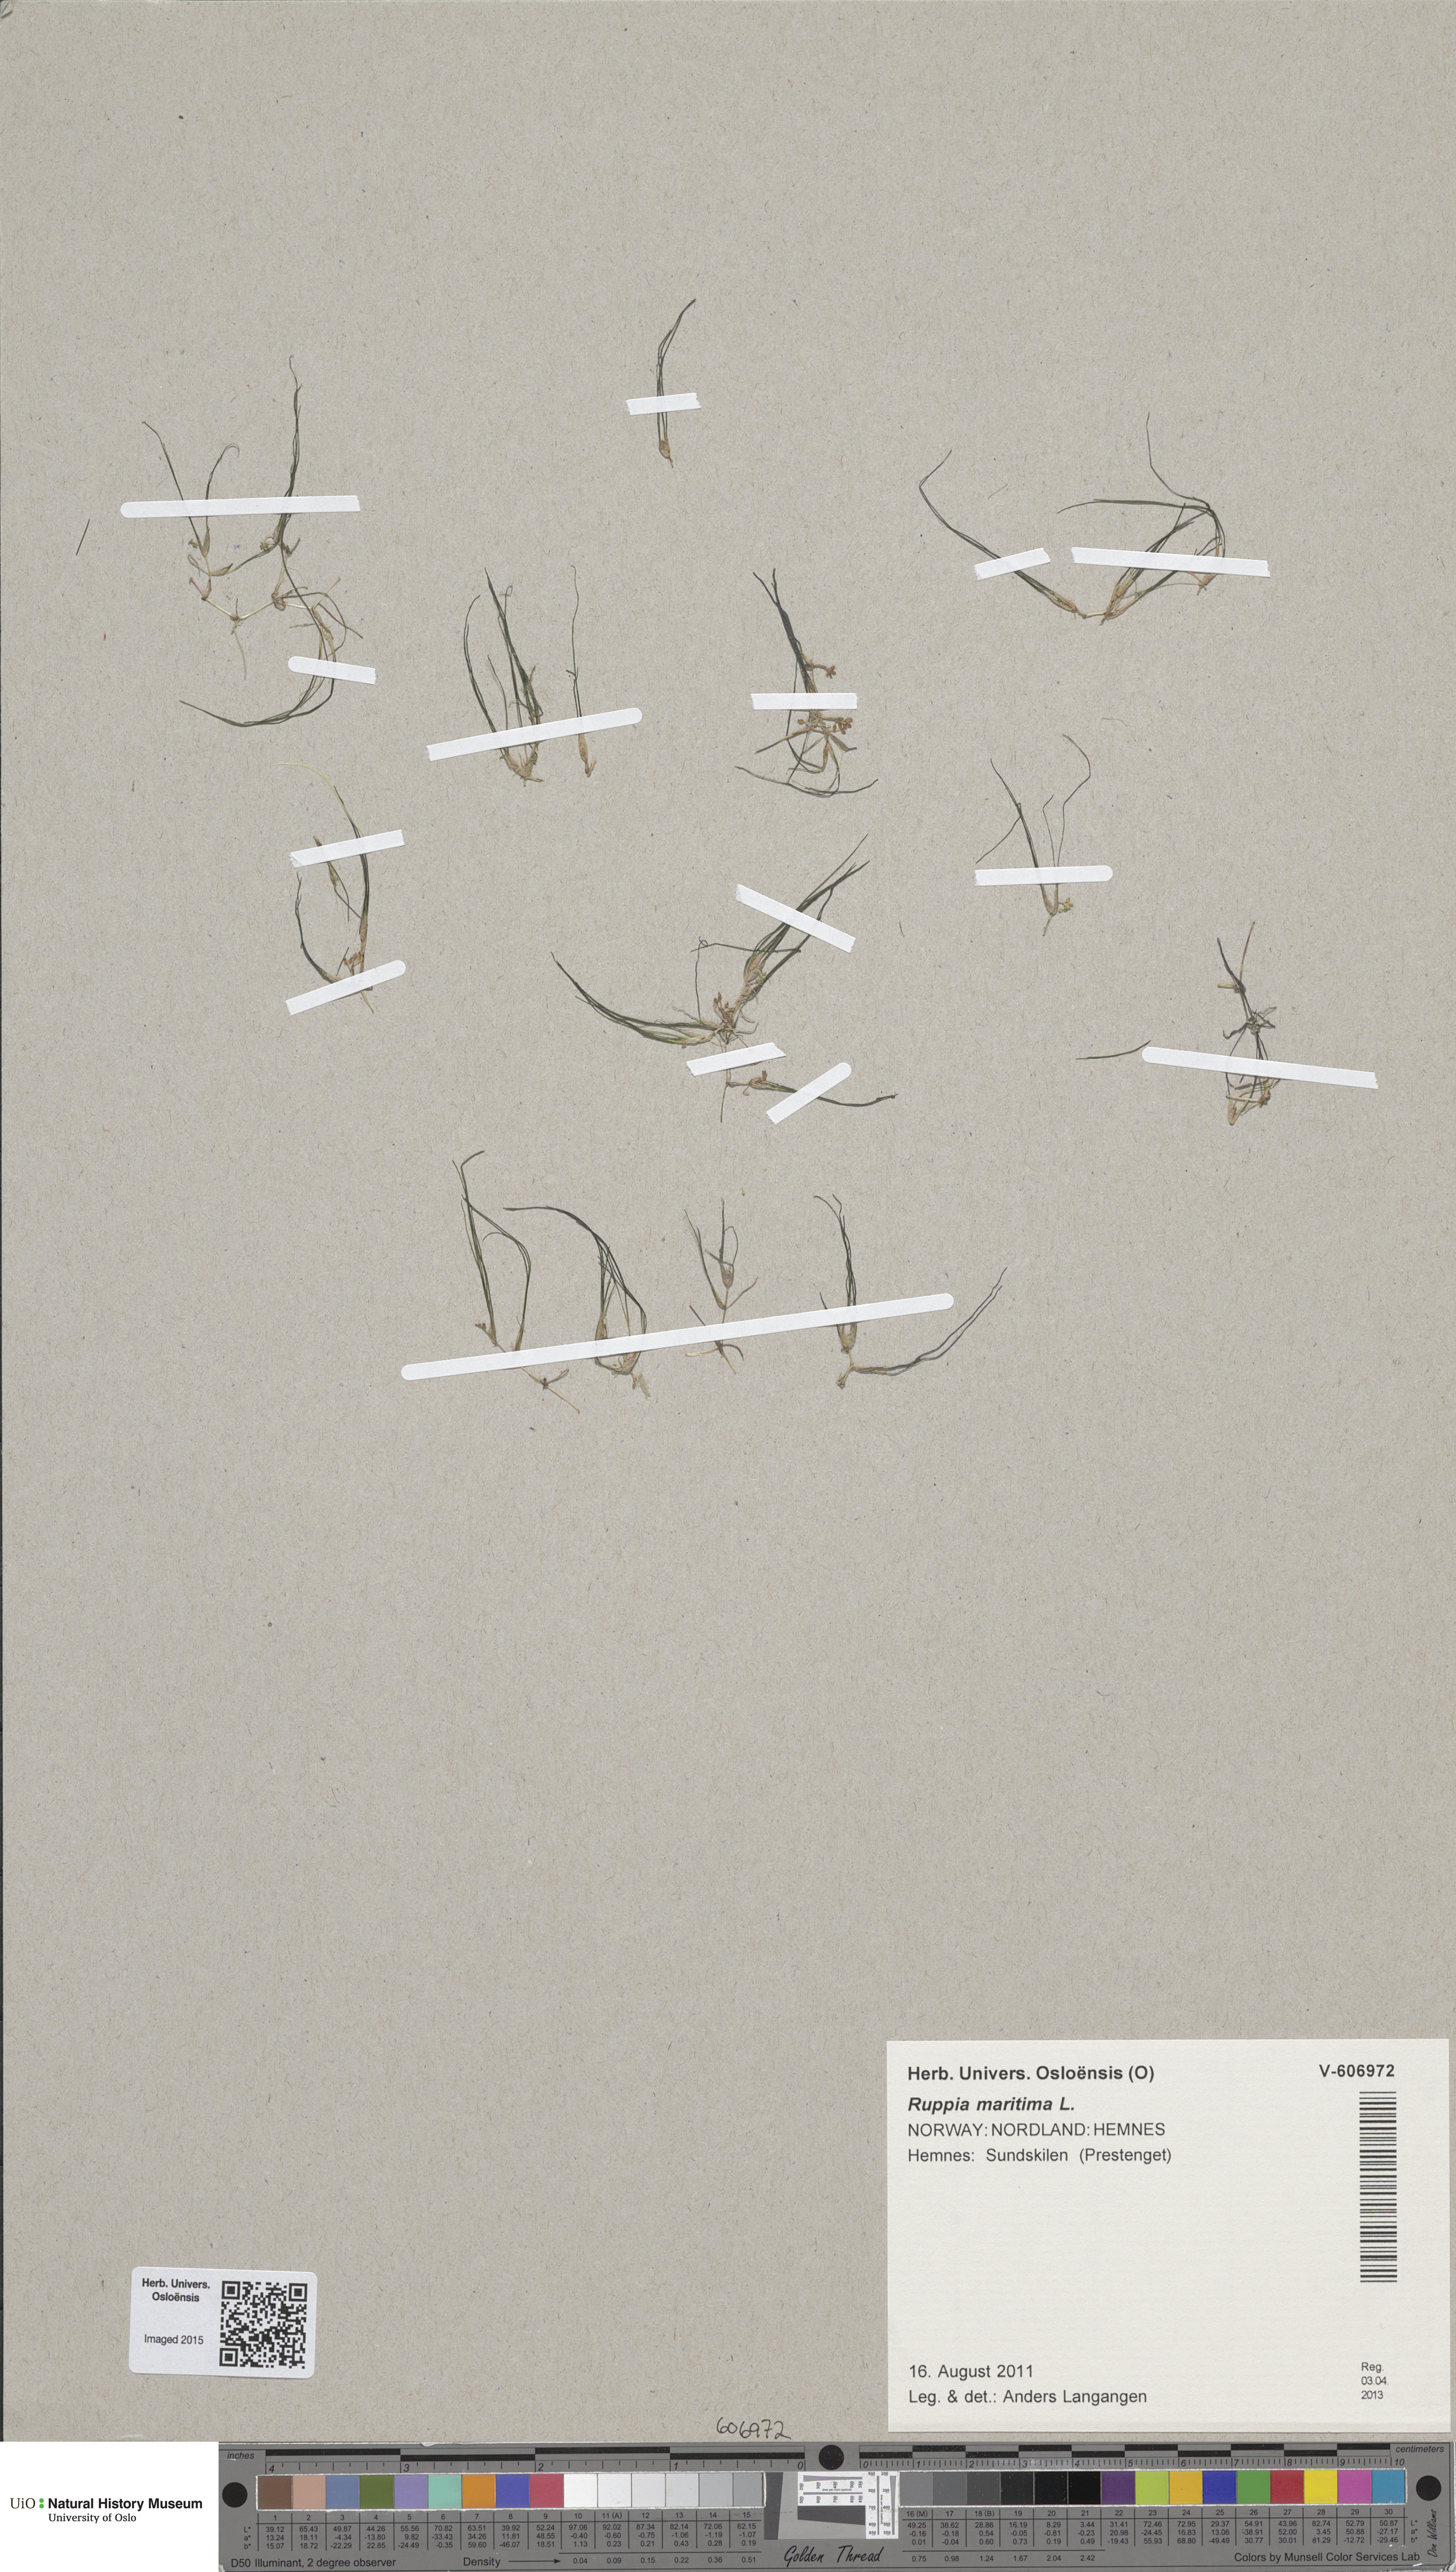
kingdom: Plantae
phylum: Tracheophyta
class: Liliopsida
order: Alismatales
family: Ruppiaceae
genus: Ruppia
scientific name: Ruppia maritima
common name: Beaked tasselweed
